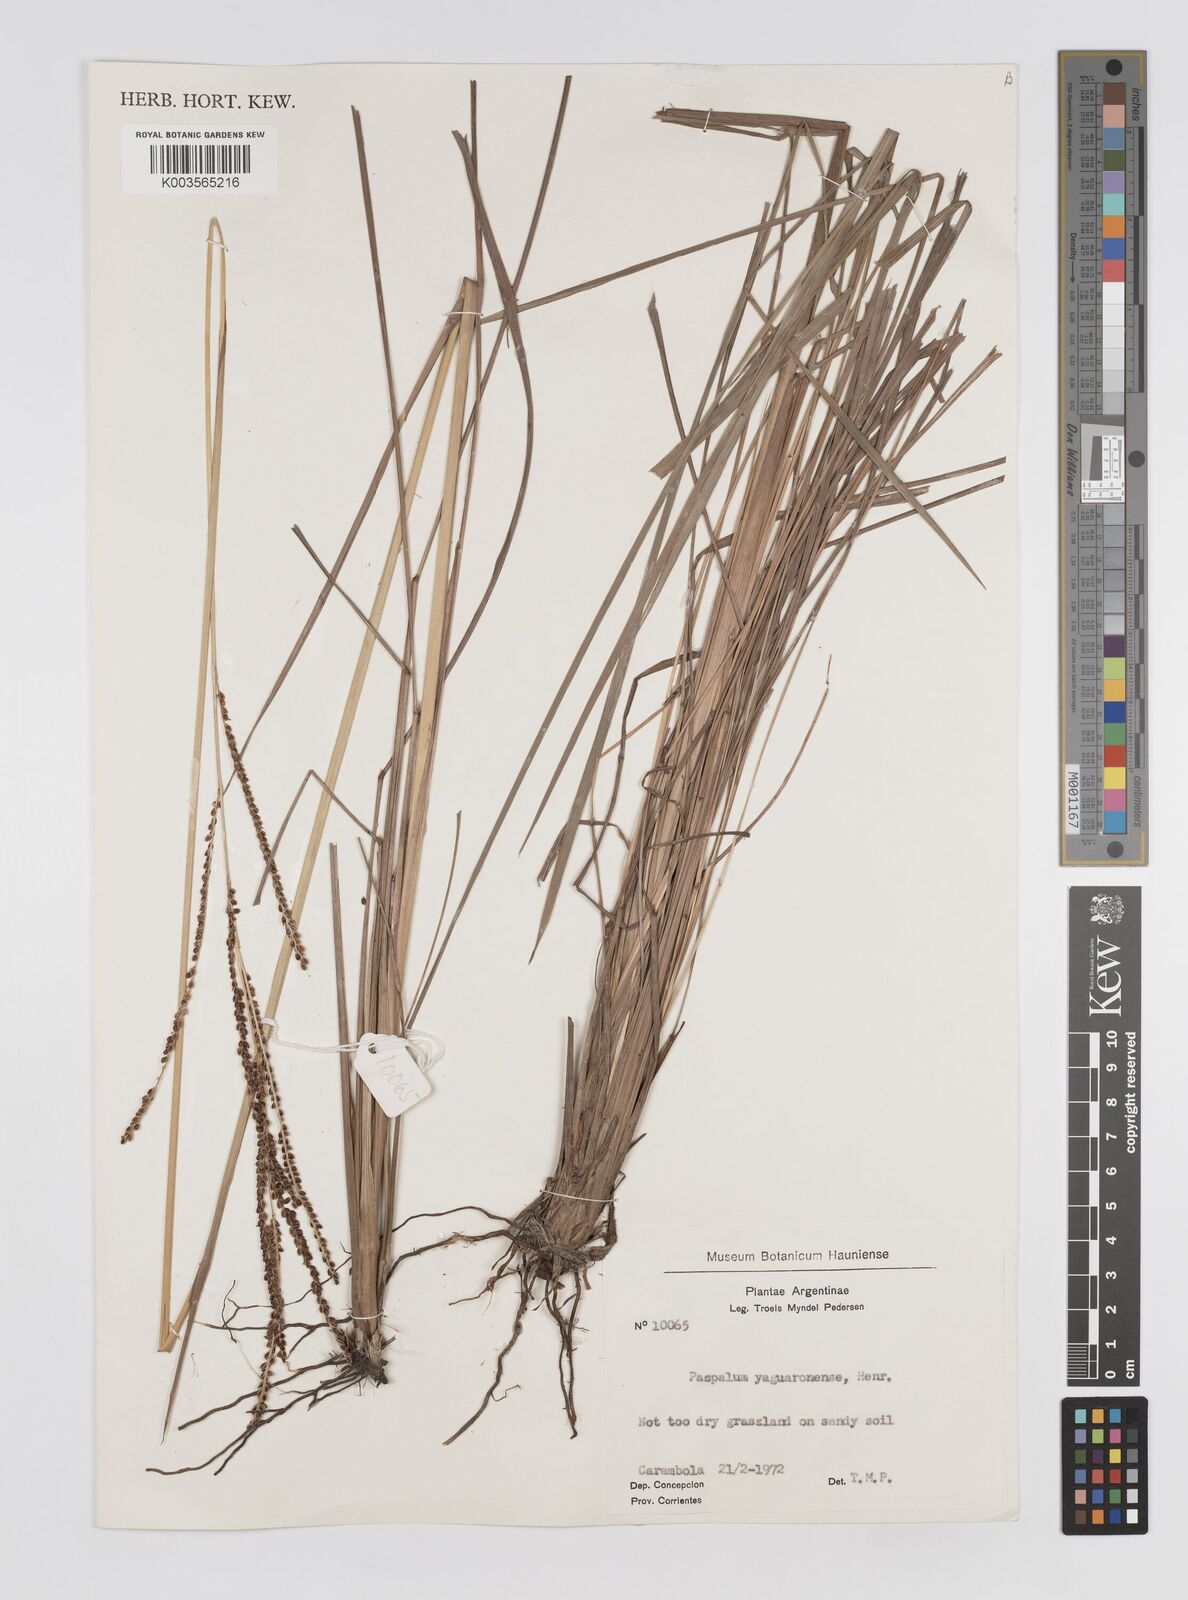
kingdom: Plantae
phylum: Tracheophyta
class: Liliopsida
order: Poales
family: Poaceae
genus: Paspalum
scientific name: Paspalum glaucescens
